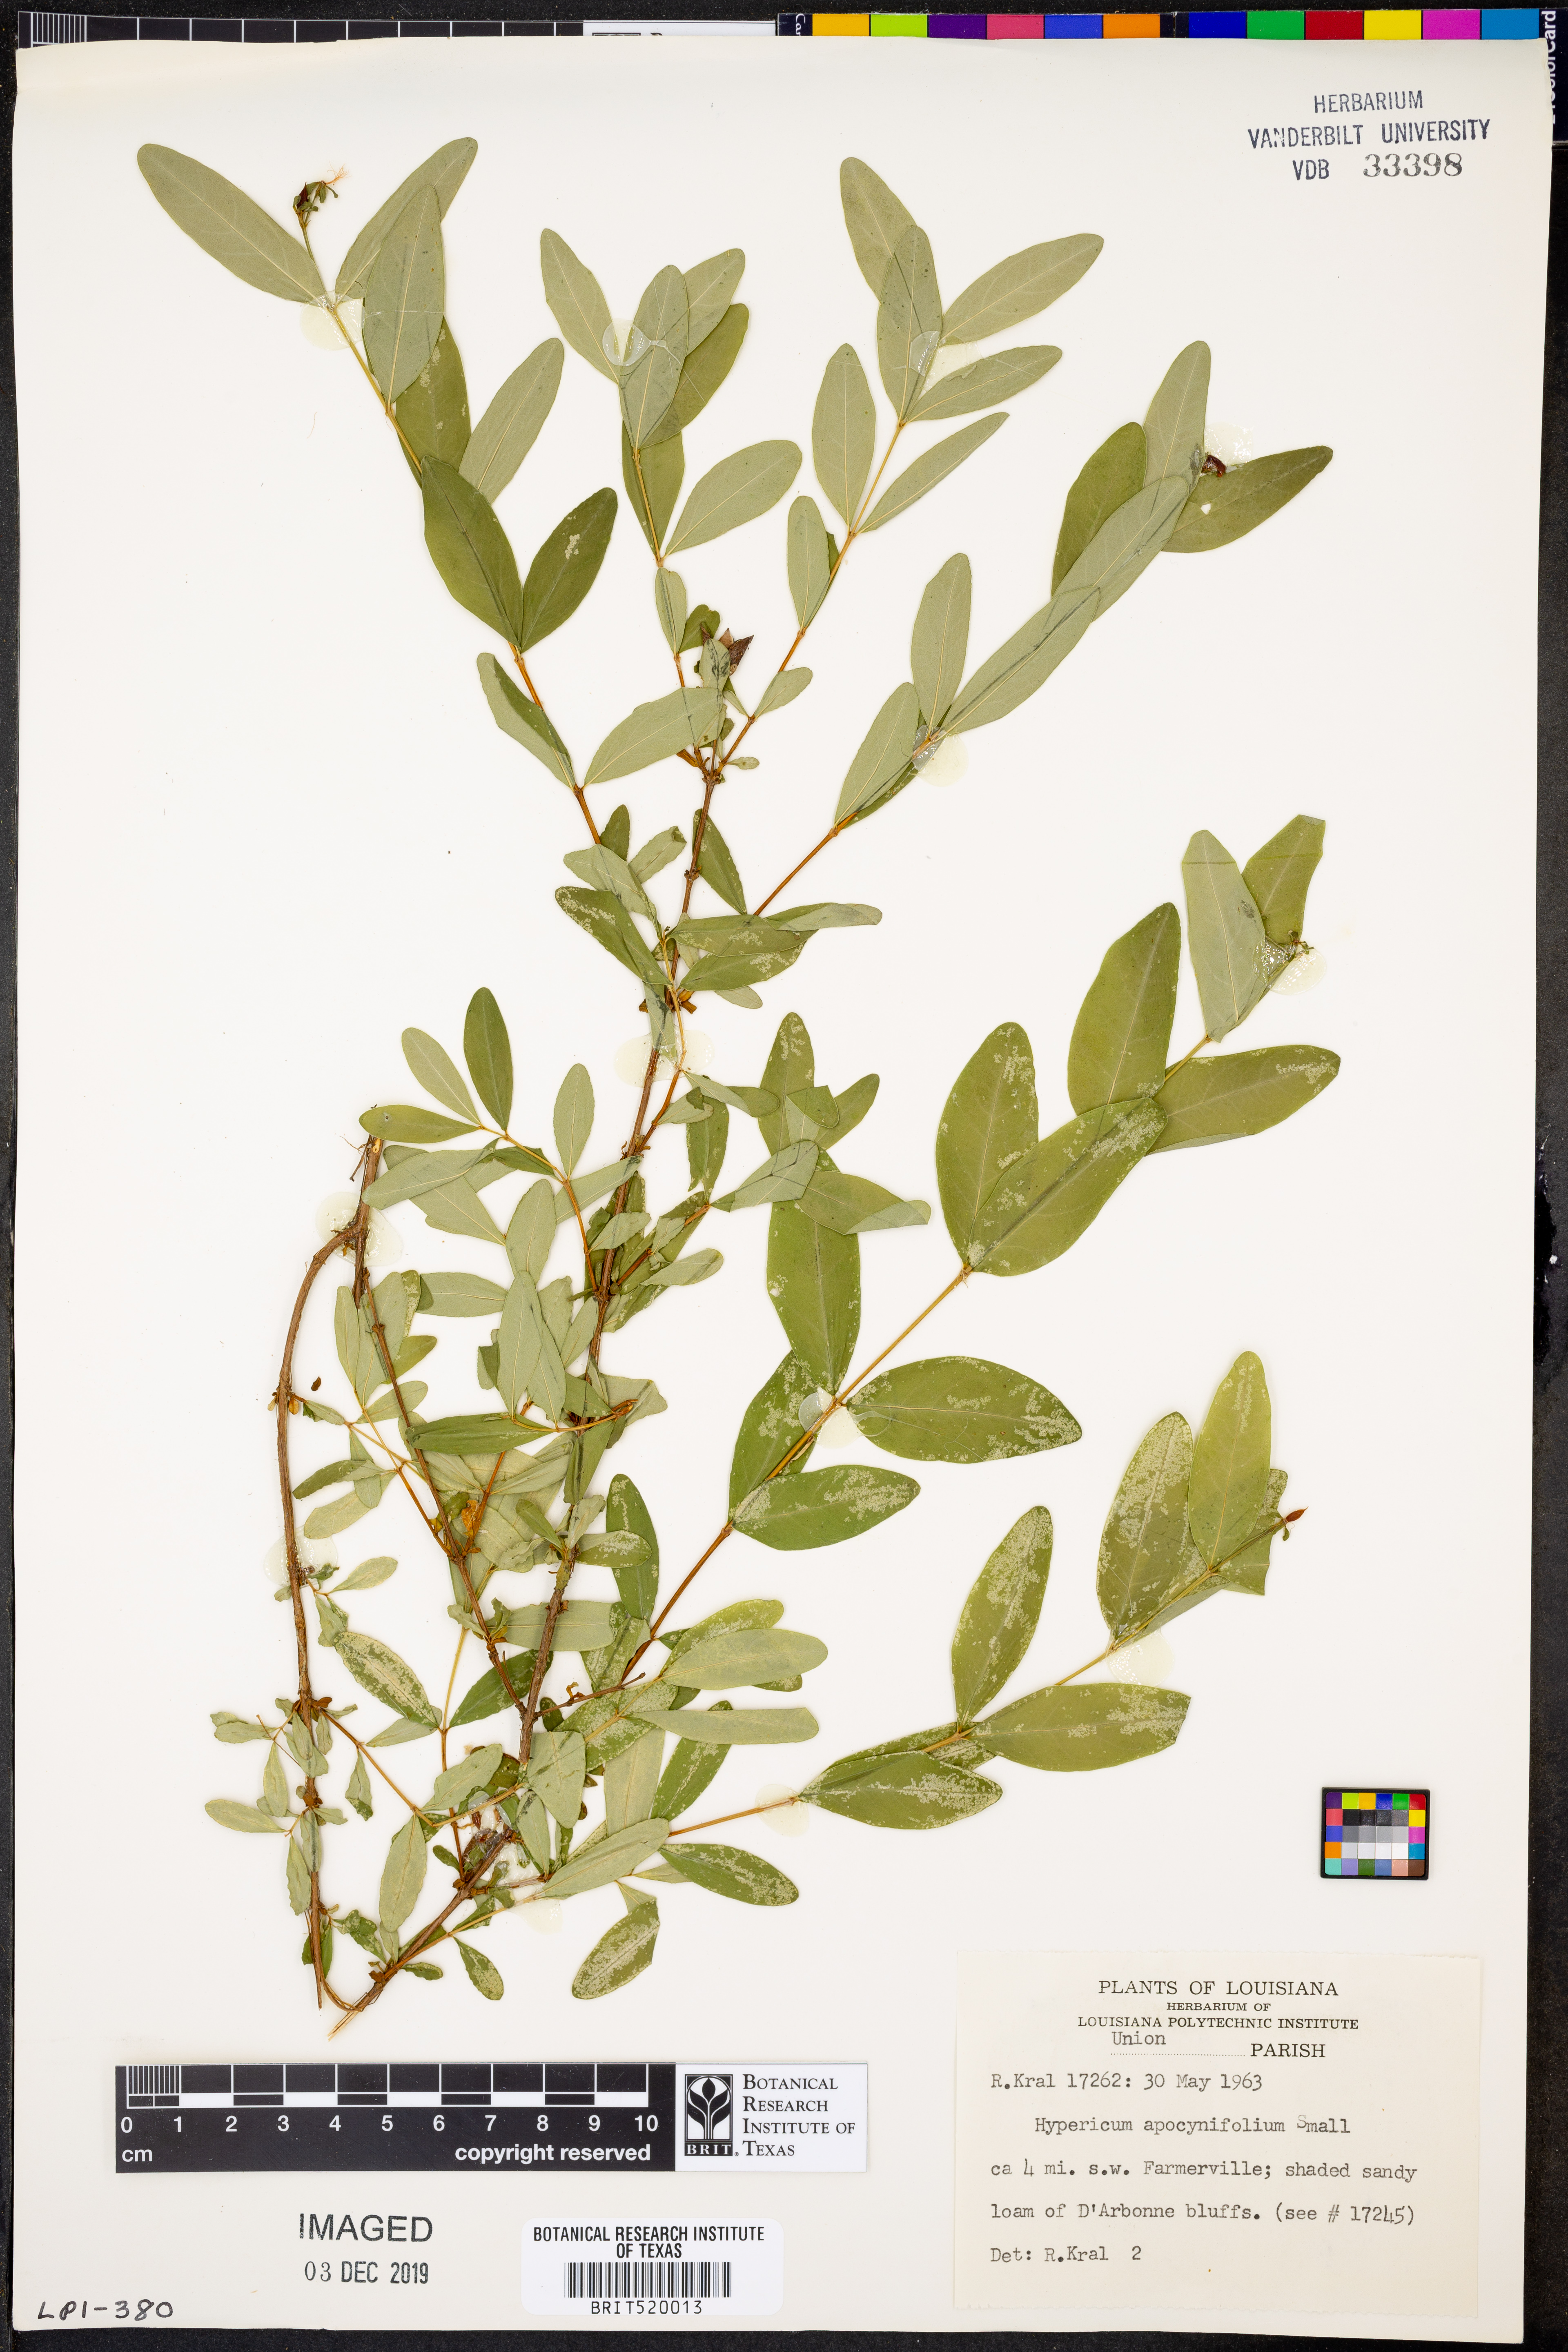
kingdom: Plantae
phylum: Tracheophyta
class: Magnoliopsida
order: Malpighiales
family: Hypericaceae
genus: Hypericum
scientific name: Hypericum apocynifolium
